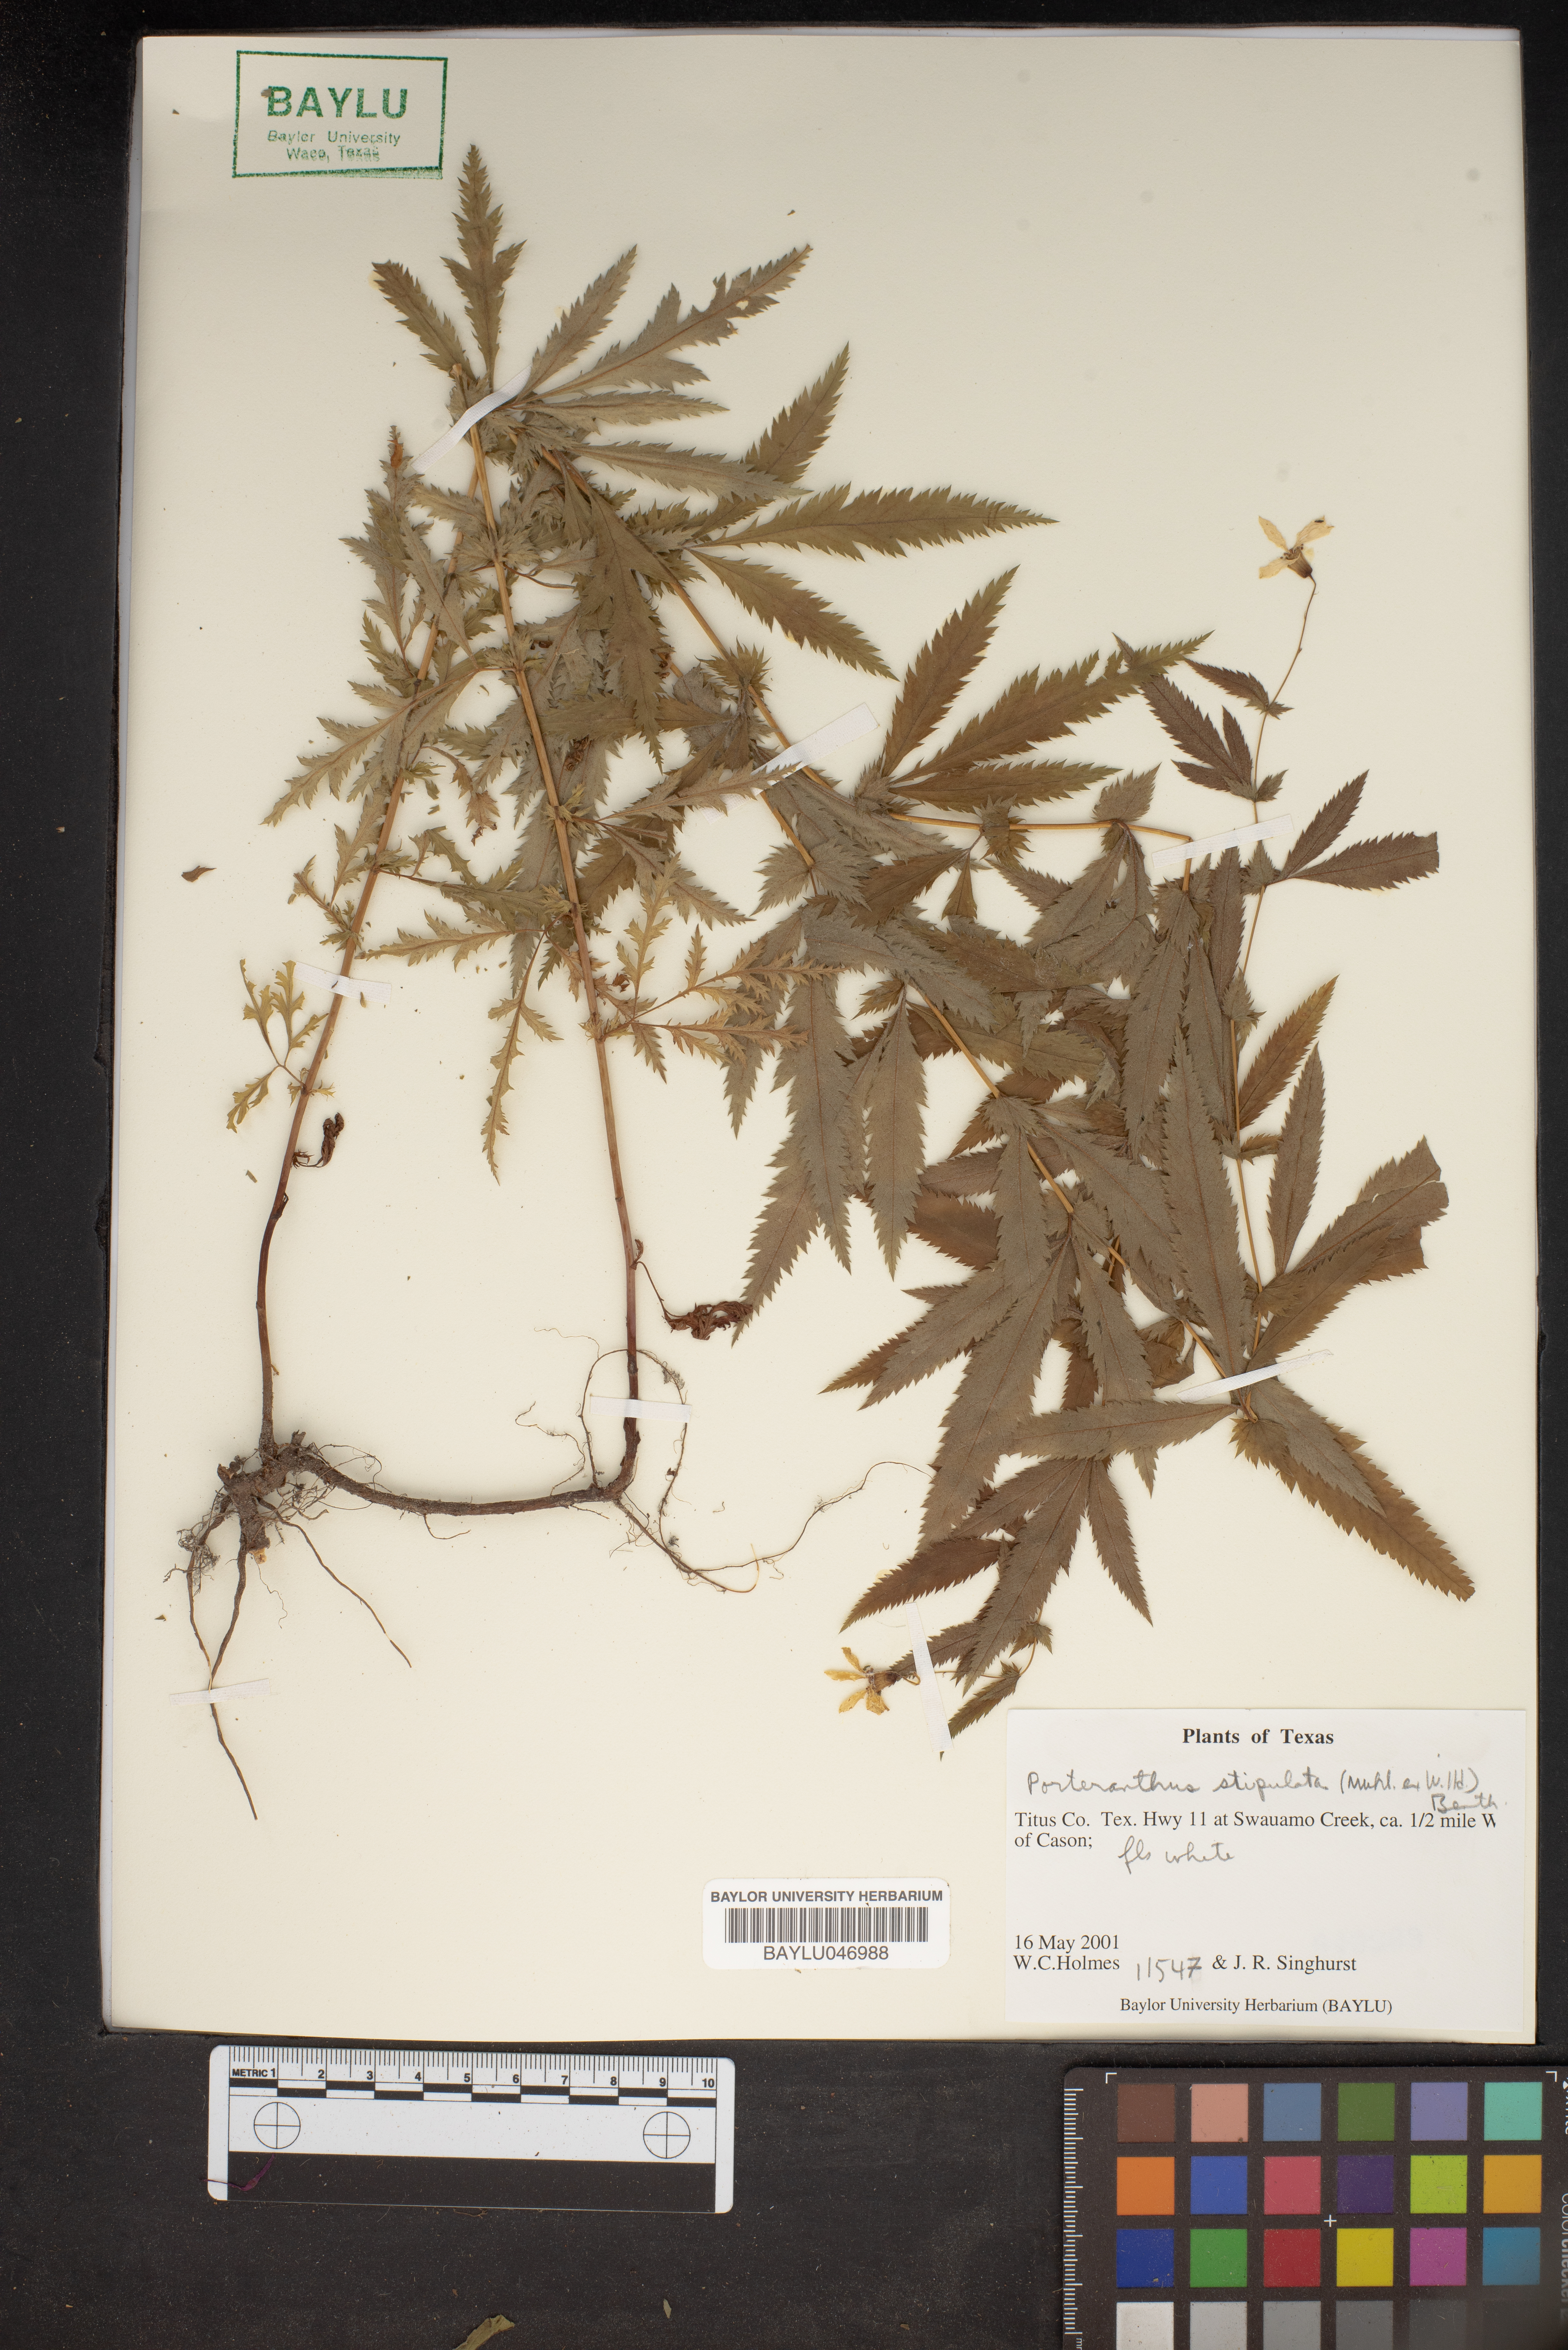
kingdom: Plantae
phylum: Tracheophyta
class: Magnoliopsida
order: Rosales
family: Rosaceae
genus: Gillenia
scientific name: Gillenia stipulata
